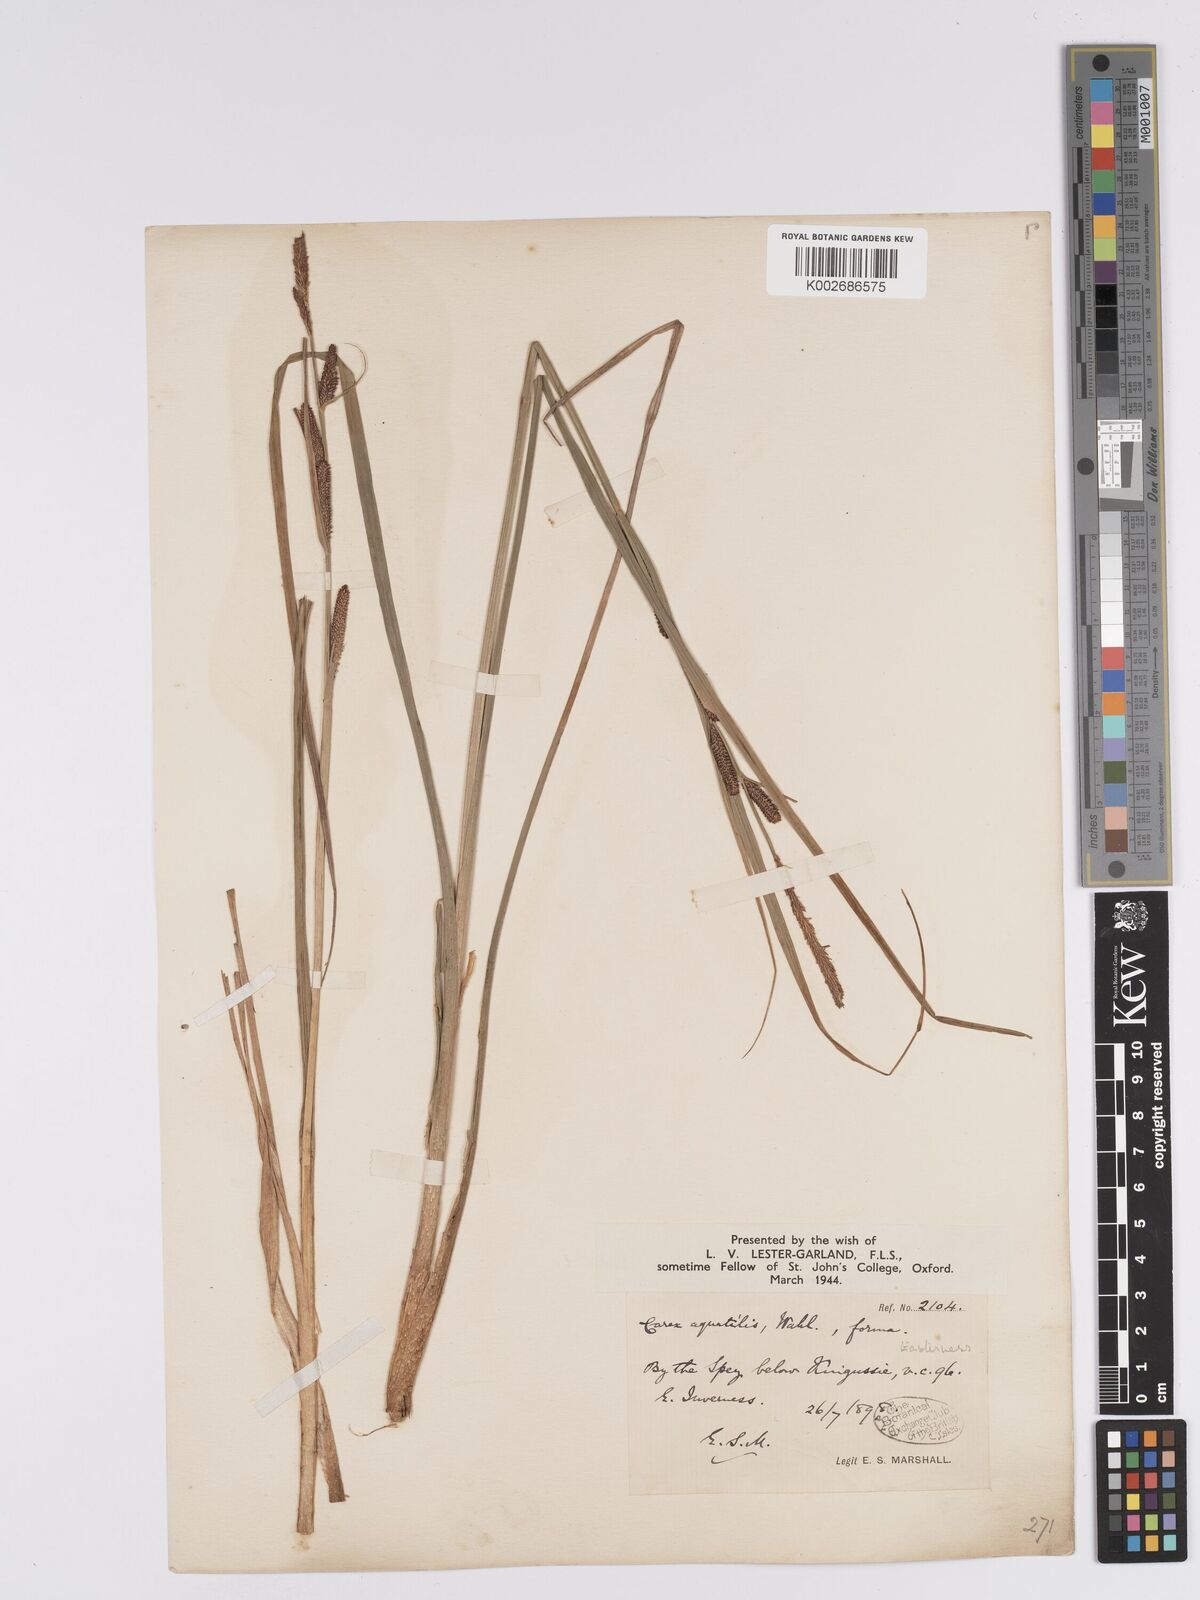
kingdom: Plantae
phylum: Tracheophyta
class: Liliopsida
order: Poales
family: Cyperaceae
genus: Carex
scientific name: Carex aquatilis
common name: Water sedge
